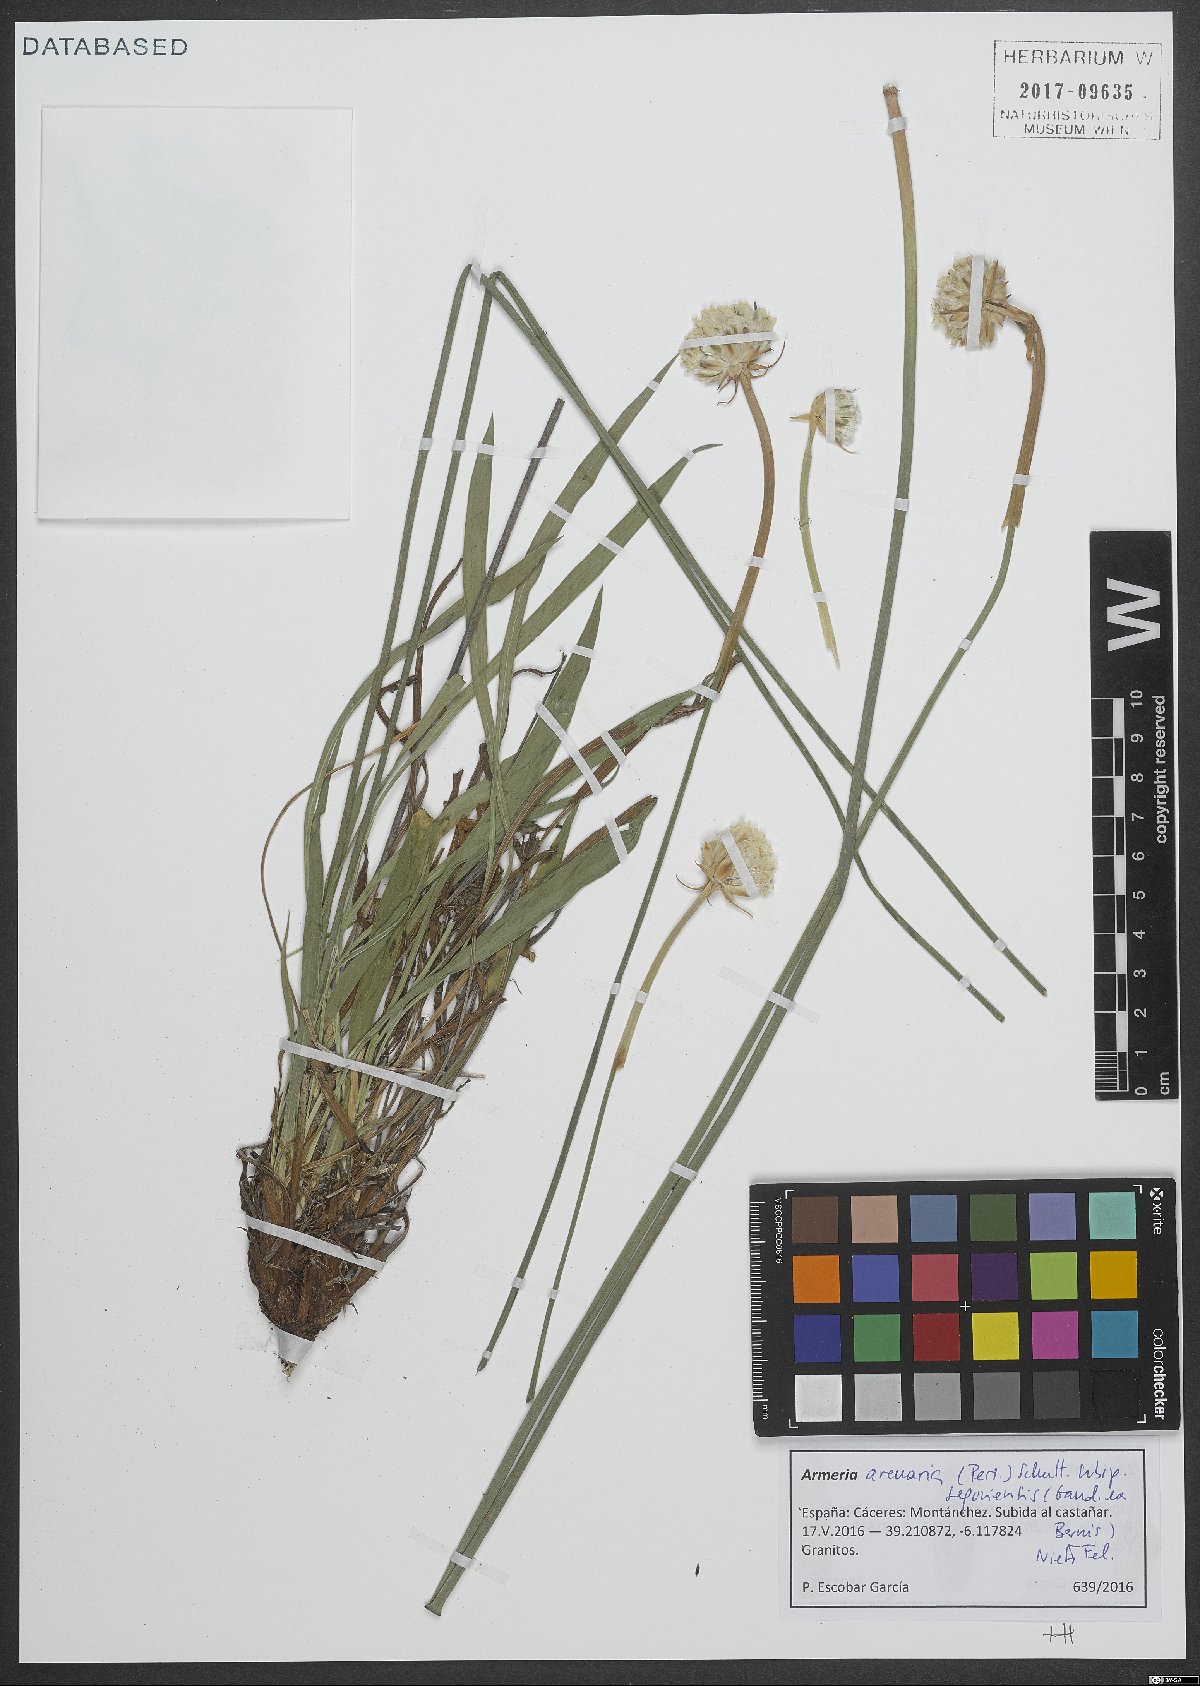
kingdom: Plantae
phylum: Tracheophyta
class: Magnoliopsida
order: Caryophyllales
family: Plumbaginaceae
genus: Armeria
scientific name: Armeria arenaria
